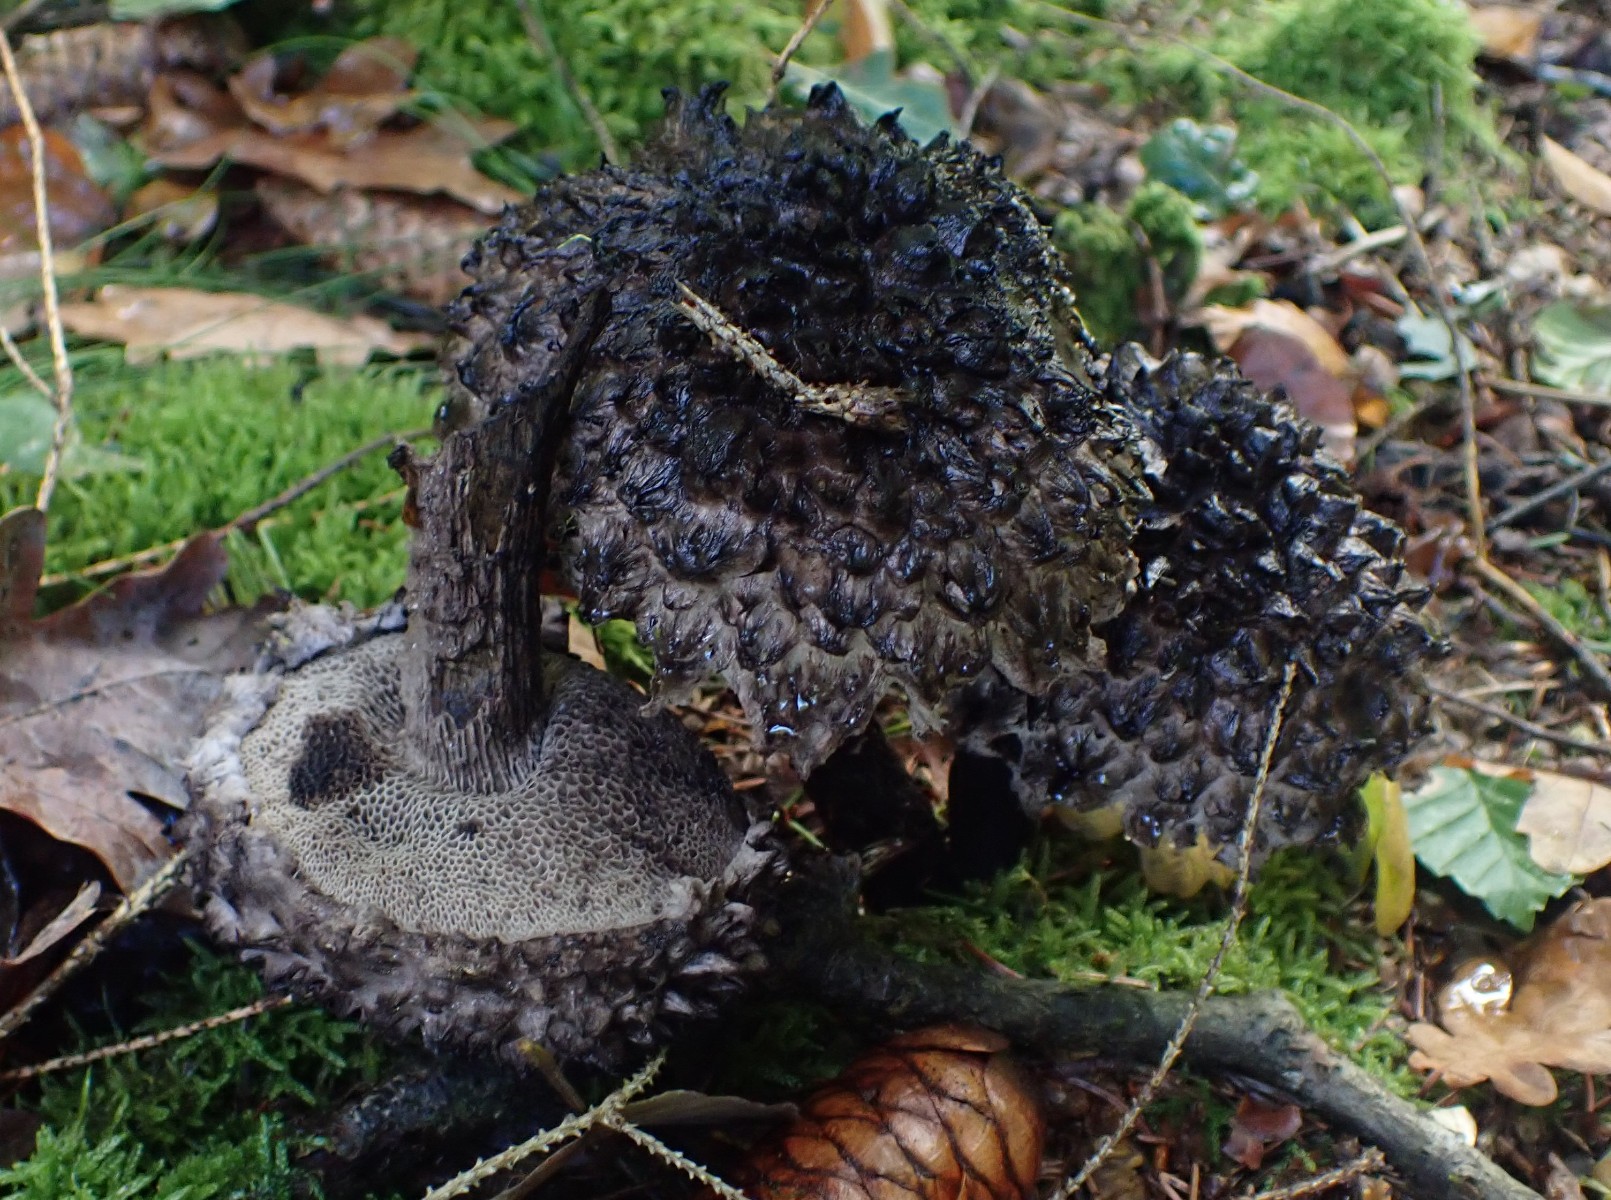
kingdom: Fungi
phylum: Basidiomycota
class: Agaricomycetes
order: Boletales
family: Boletaceae
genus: Strobilomyces
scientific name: Strobilomyces strobilaceus
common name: koglerørhat
